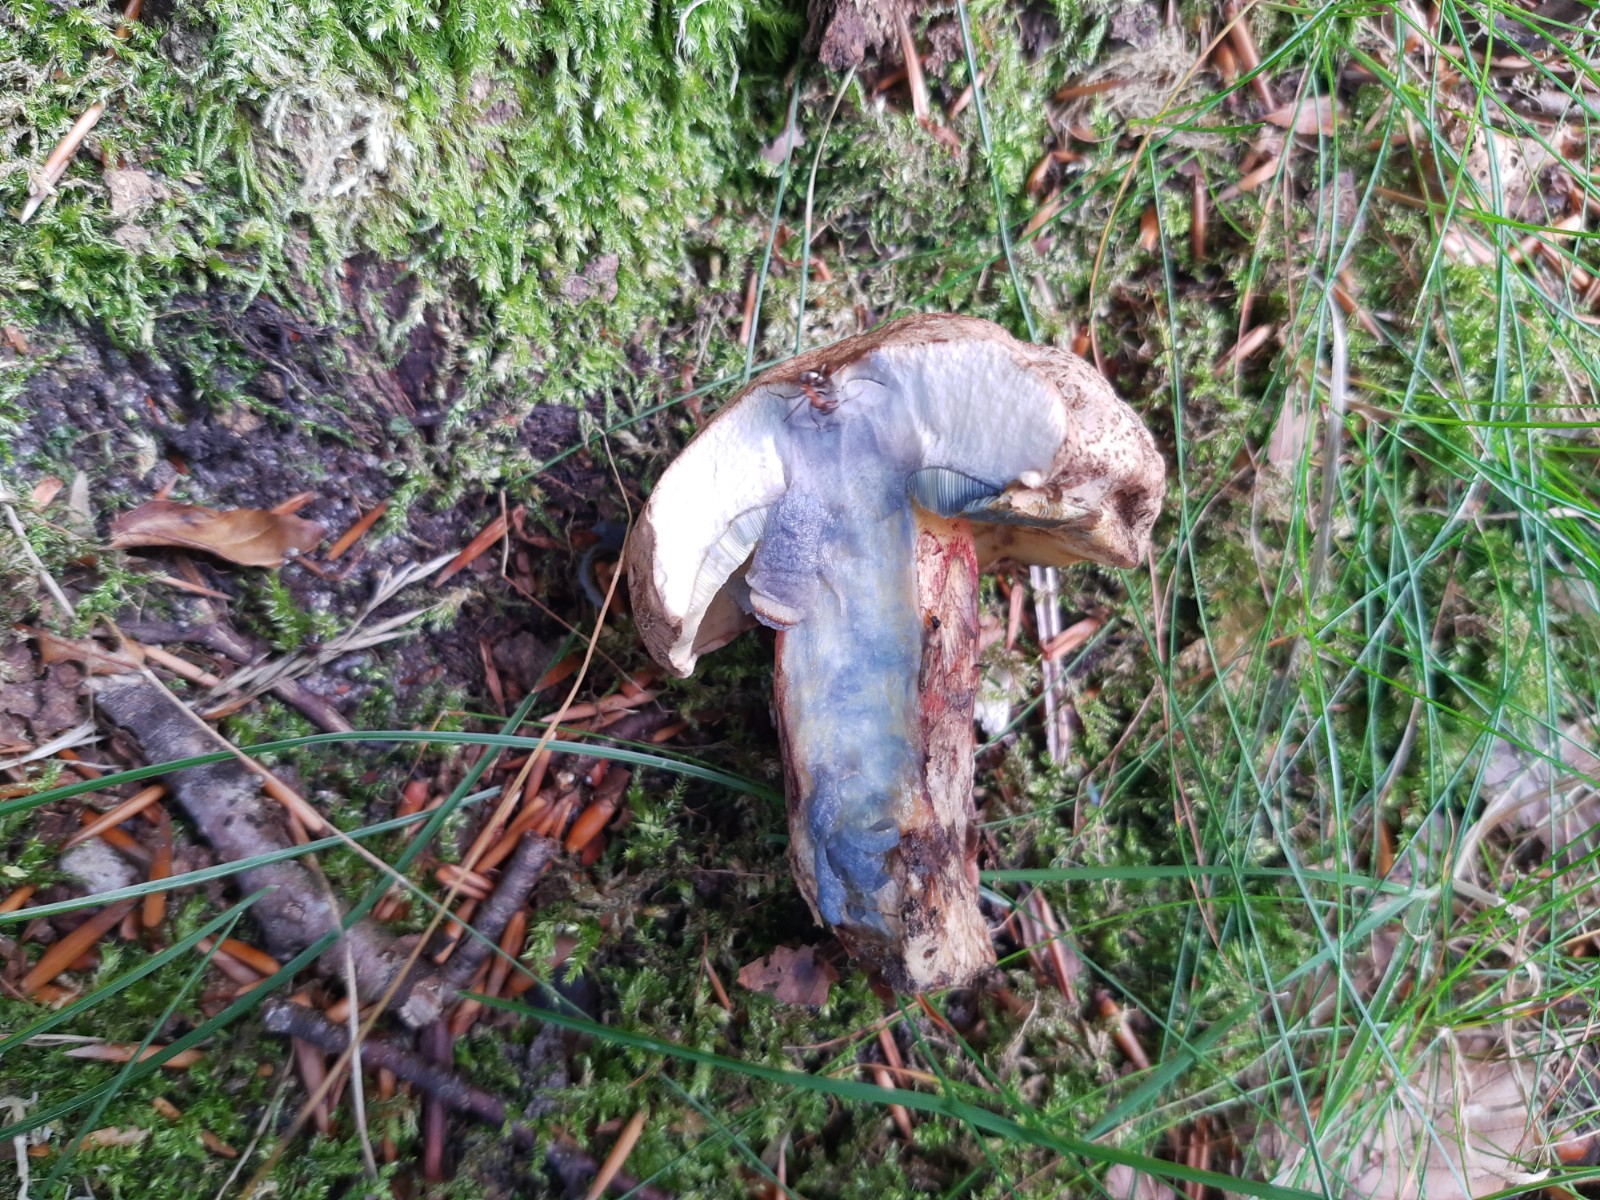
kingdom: Fungi
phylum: Basidiomycota
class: Agaricomycetes
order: Boletales
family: Boletaceae
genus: Caloboletus
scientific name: Caloboletus calopus
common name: skønfodet rørhat
